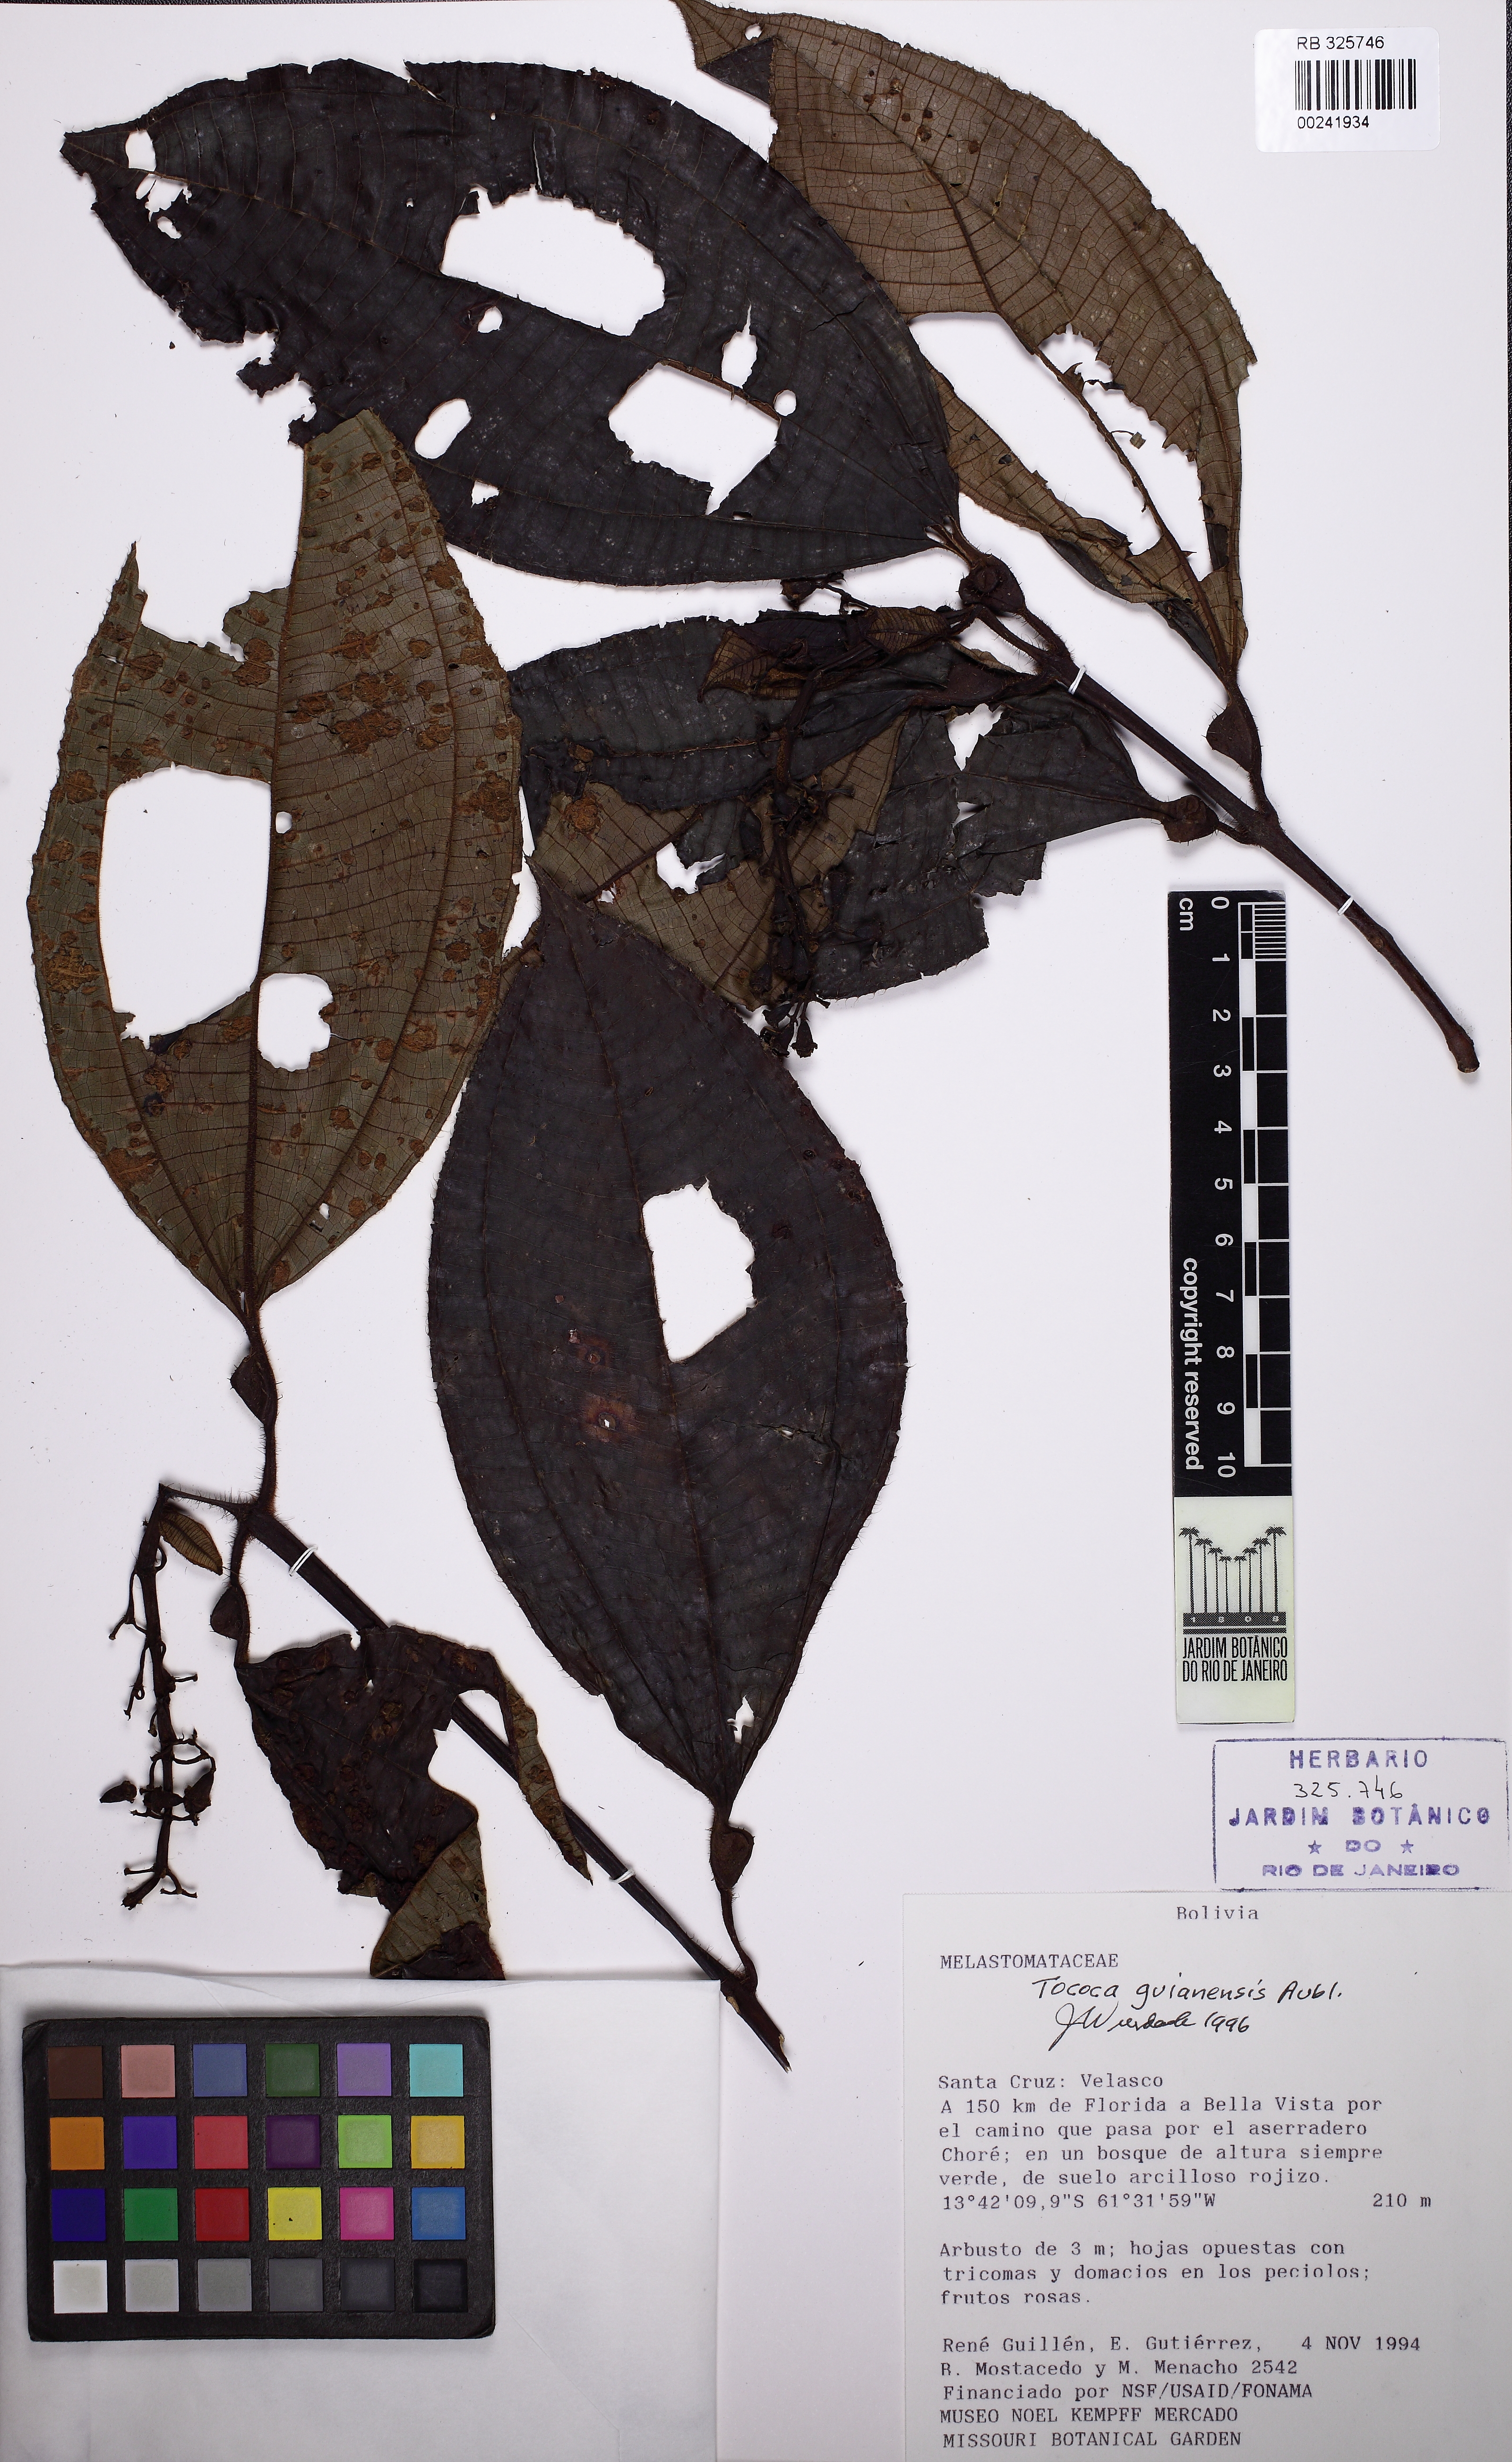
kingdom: Plantae
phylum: Tracheophyta
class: Magnoliopsida
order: Myrtales
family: Melastomataceae
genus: Miconia
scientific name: Miconia tococa
